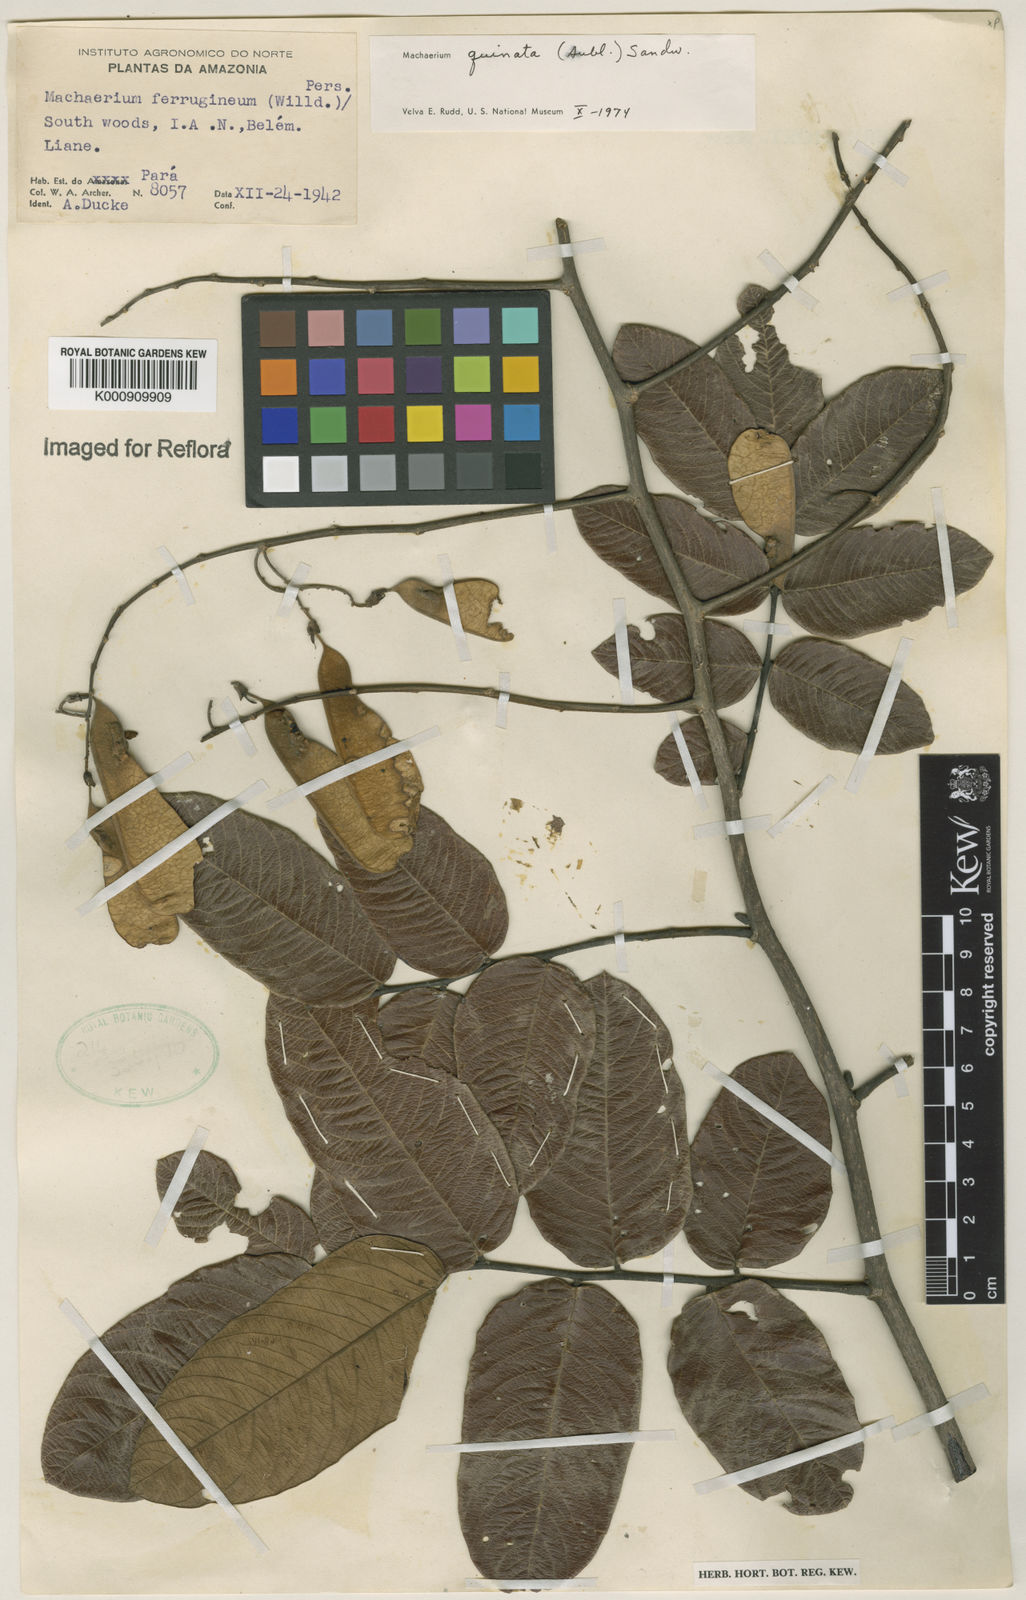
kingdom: Plantae
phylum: Tracheophyta
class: Magnoliopsida
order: Fabales
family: Fabaceae
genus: Machaerium
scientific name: Machaerium quinata
